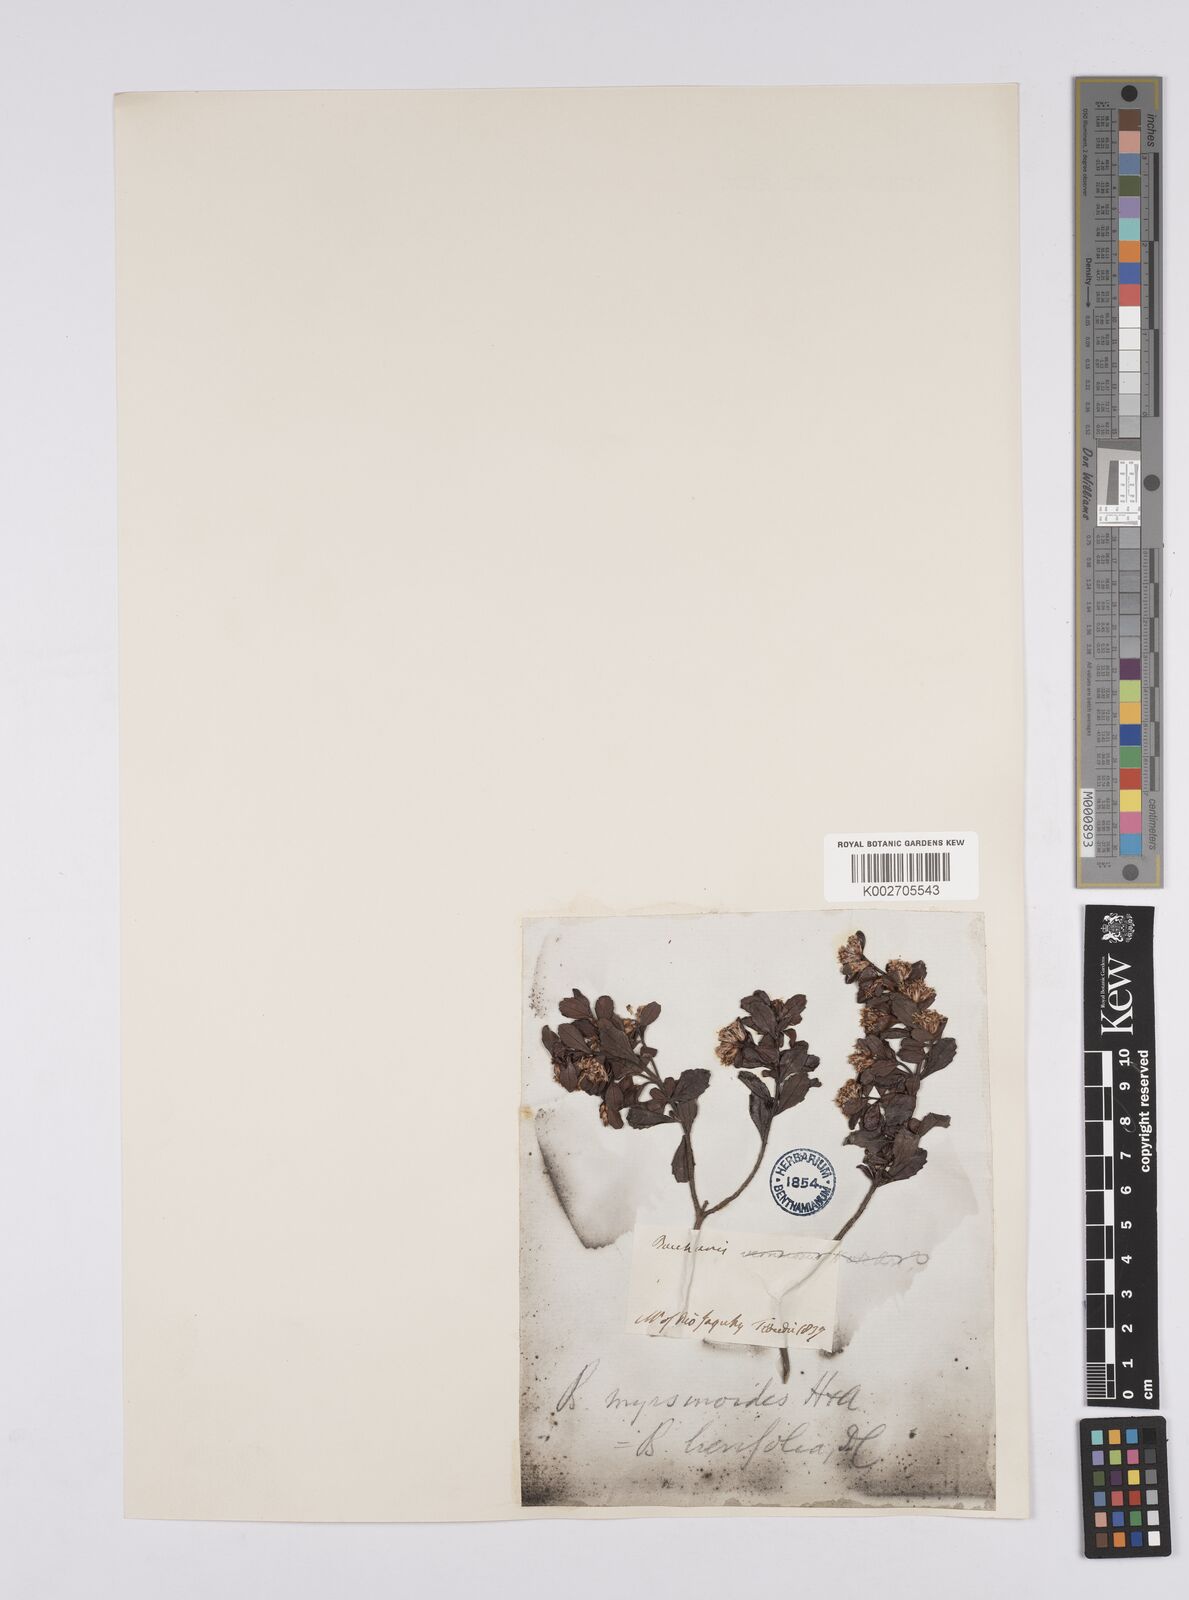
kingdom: Plantae
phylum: Tracheophyta
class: Magnoliopsida
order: Asterales
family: Asteraceae
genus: Baccharis
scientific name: Baccharis brevifolia
